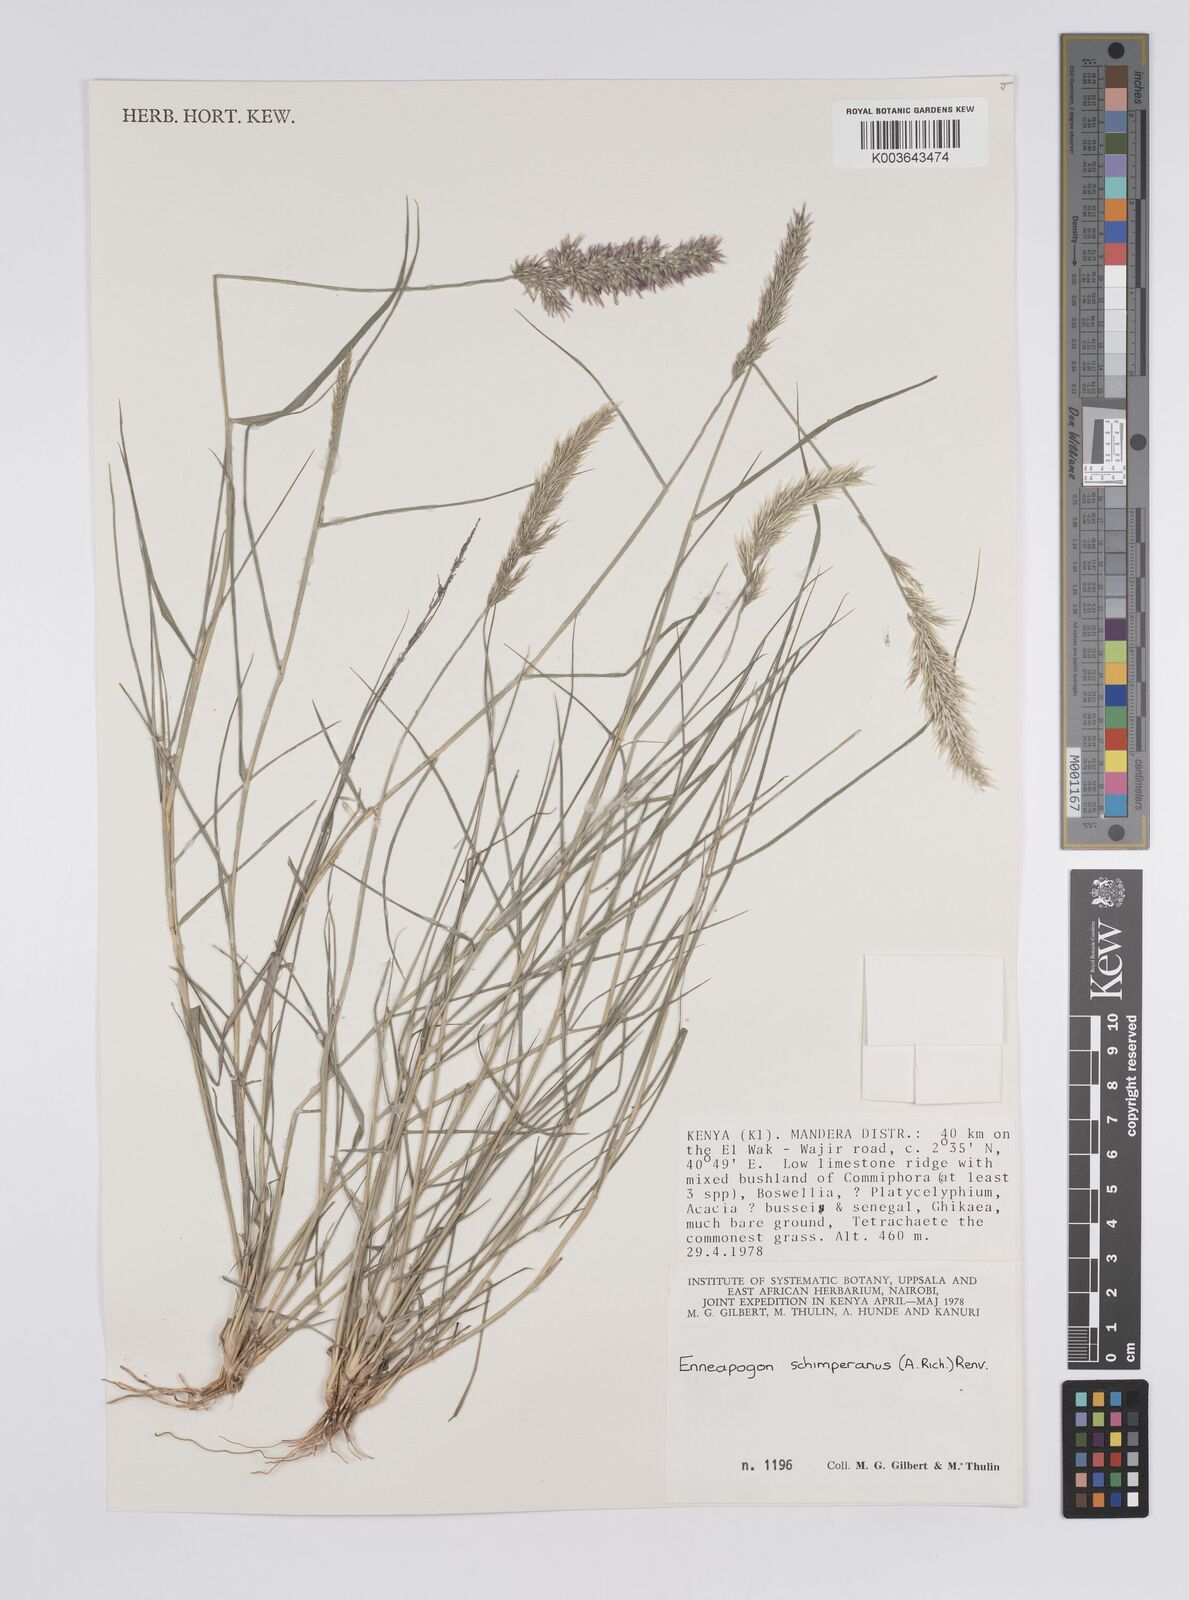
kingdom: Plantae
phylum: Tracheophyta
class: Liliopsida
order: Poales
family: Poaceae
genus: Enneapogon
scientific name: Enneapogon persicus
